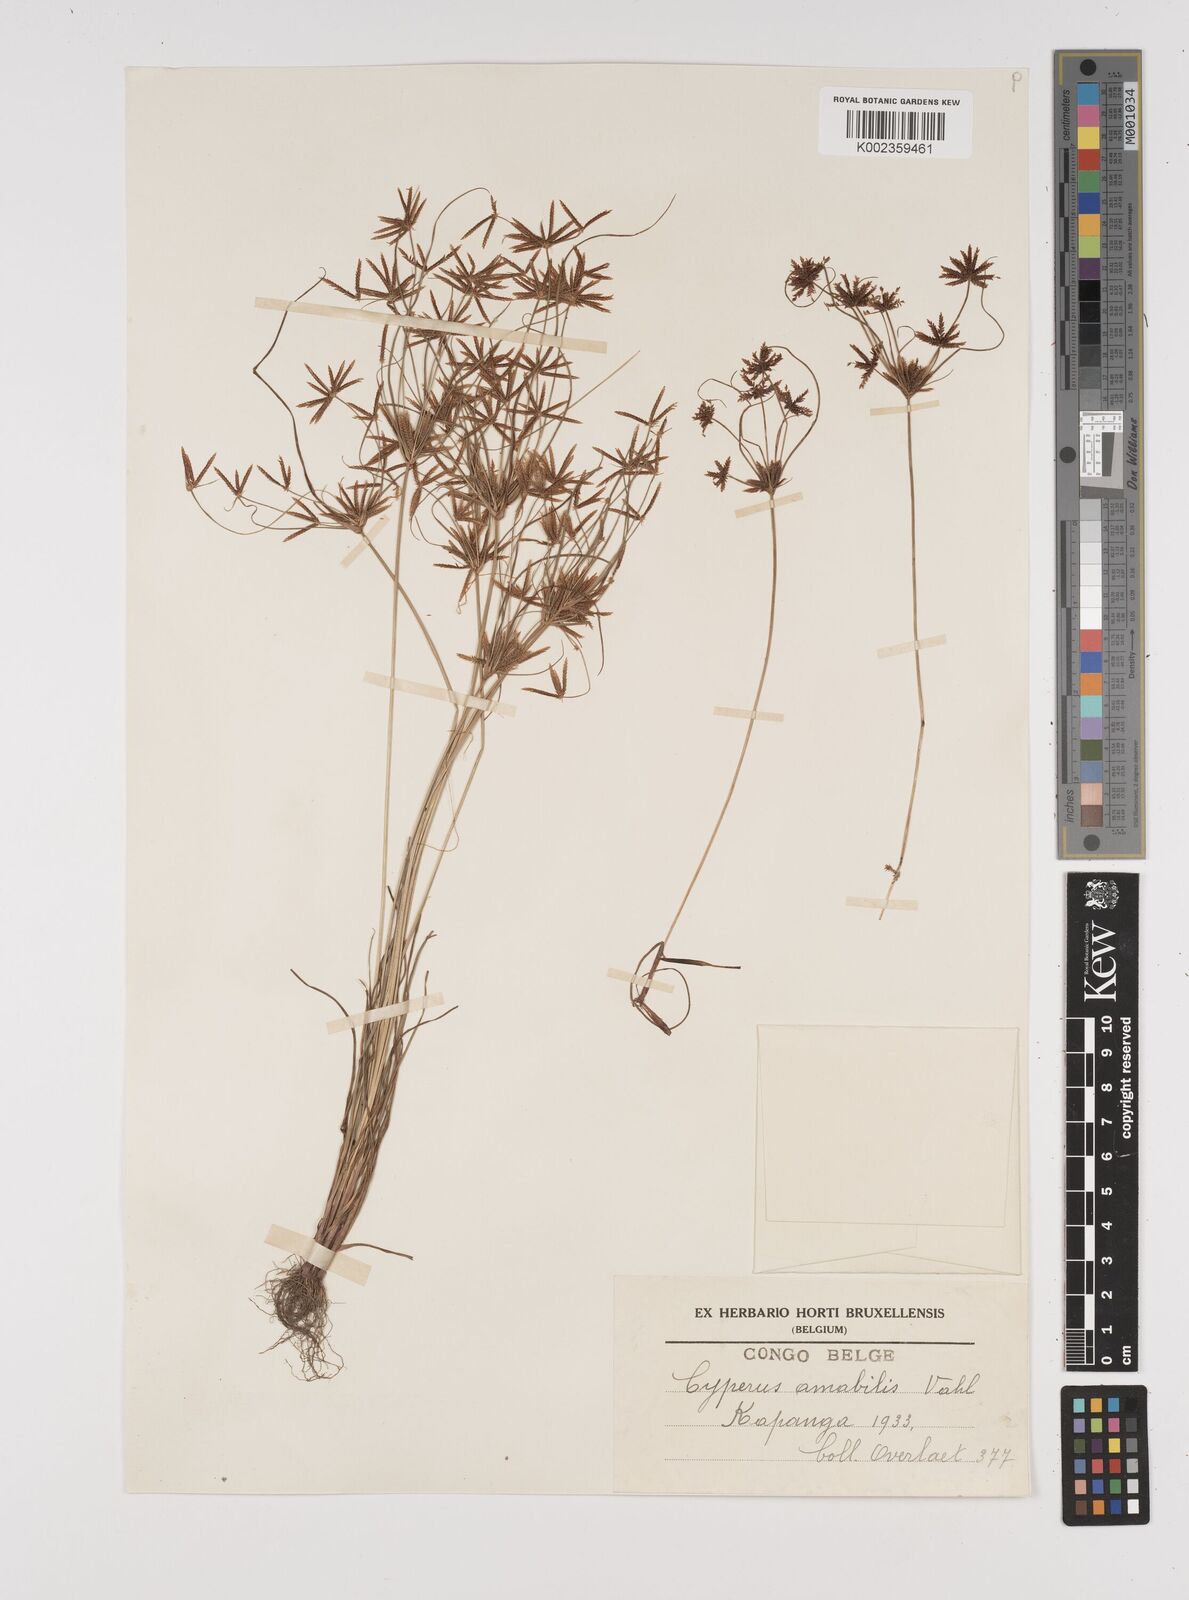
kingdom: Plantae
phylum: Tracheophyta
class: Liliopsida
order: Poales
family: Cyperaceae
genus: Cyperus
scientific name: Cyperus amabilis
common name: Foothill flat sedge
